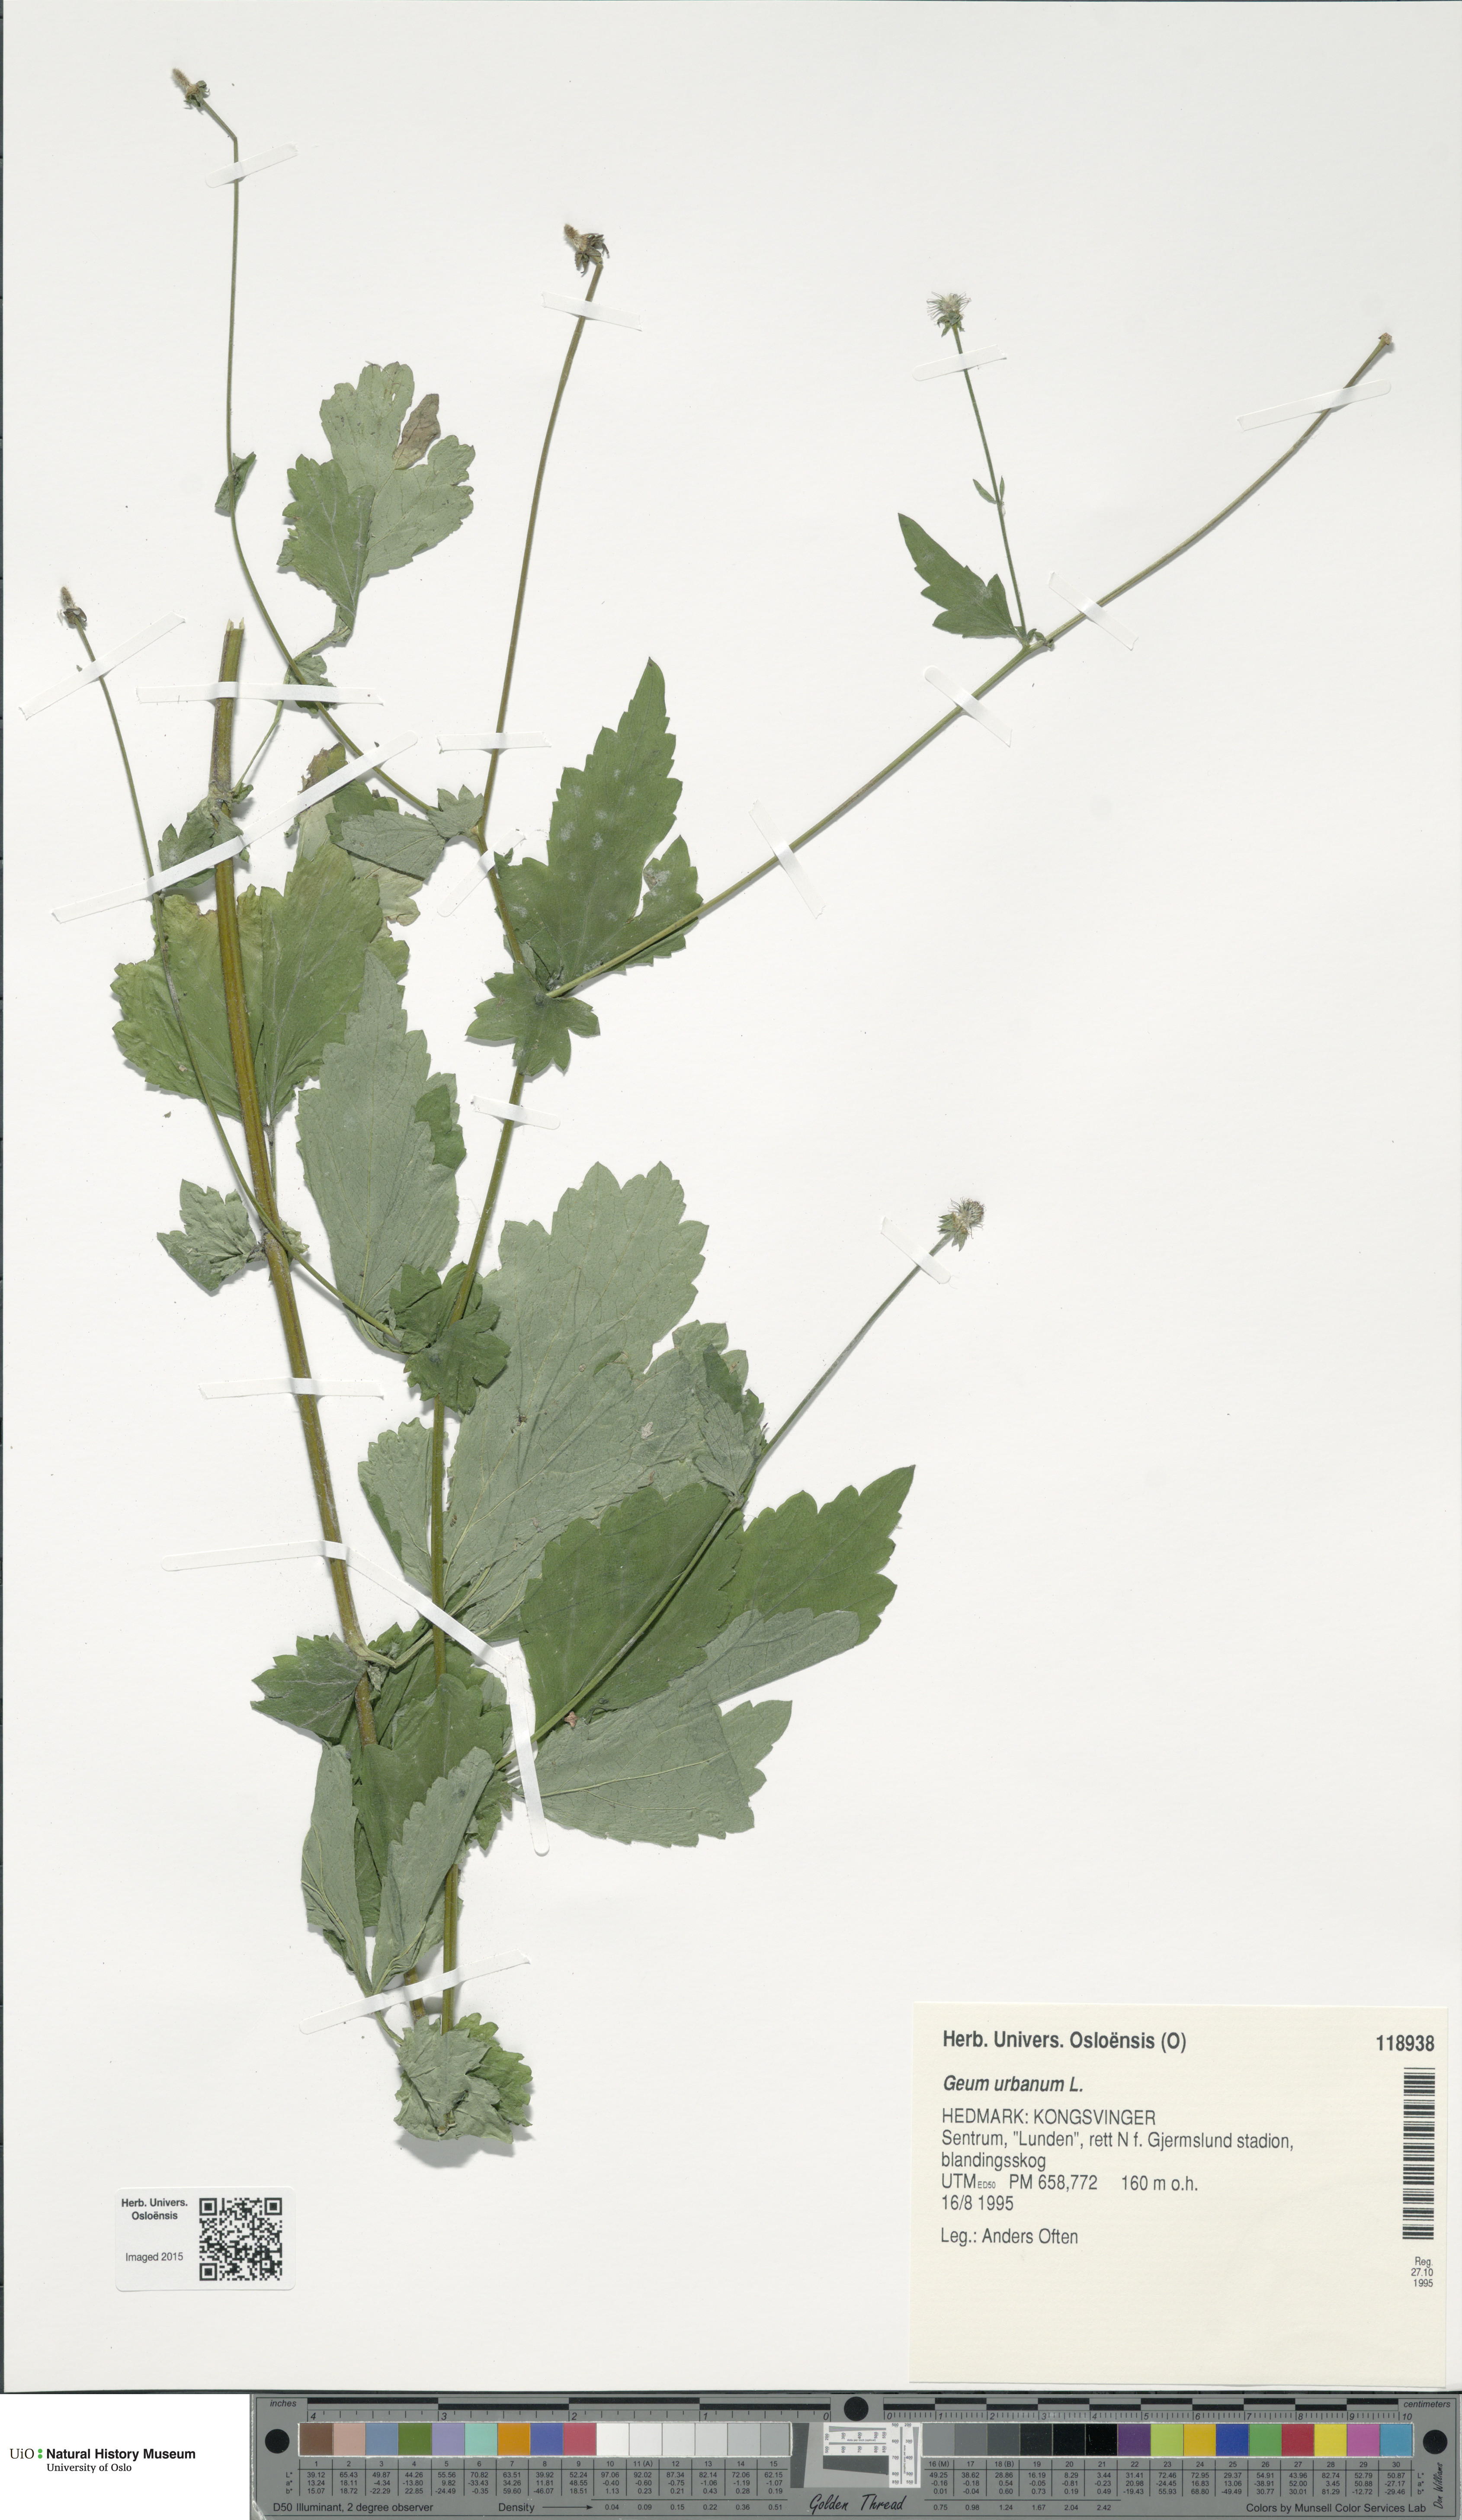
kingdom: Plantae
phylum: Tracheophyta
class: Magnoliopsida
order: Rosales
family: Rosaceae
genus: Geum
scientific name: Geum urbanum
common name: Wood avens
